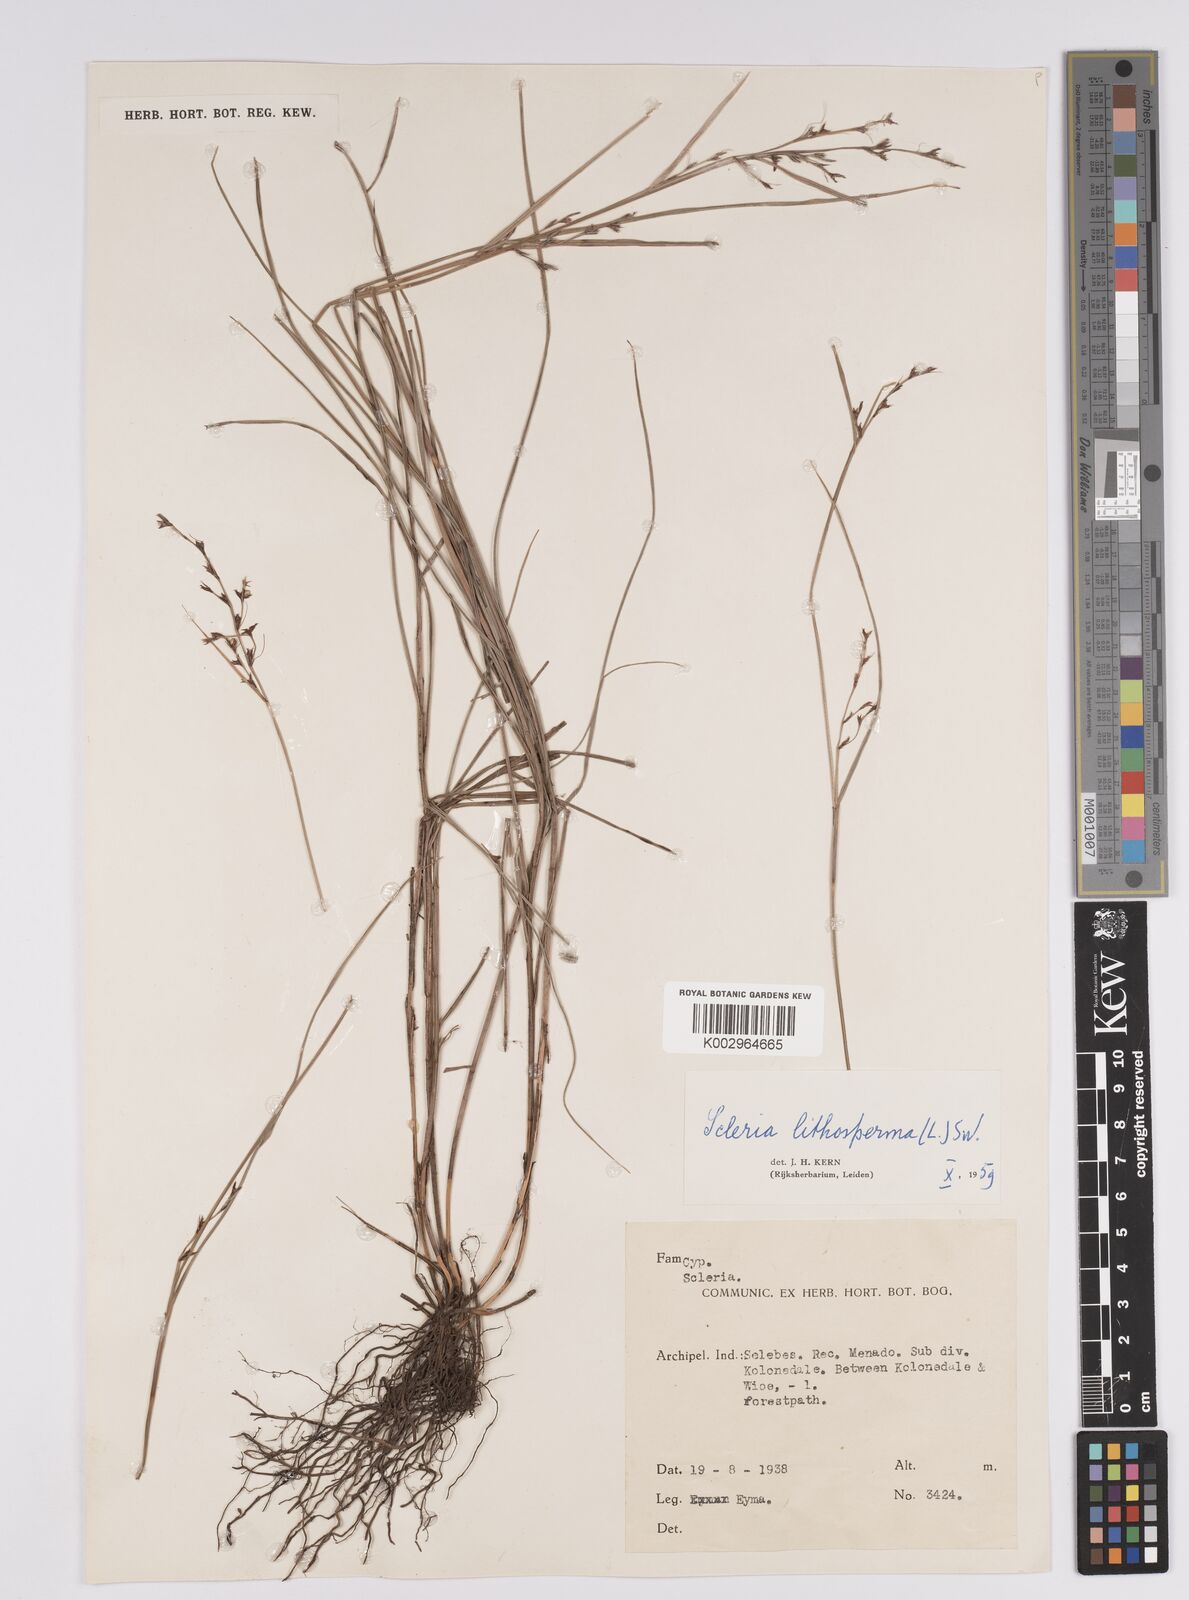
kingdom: Plantae
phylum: Tracheophyta
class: Liliopsida
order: Poales
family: Cyperaceae
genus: Scleria
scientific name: Scleria lithosperma
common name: Florida keys nut-rush
